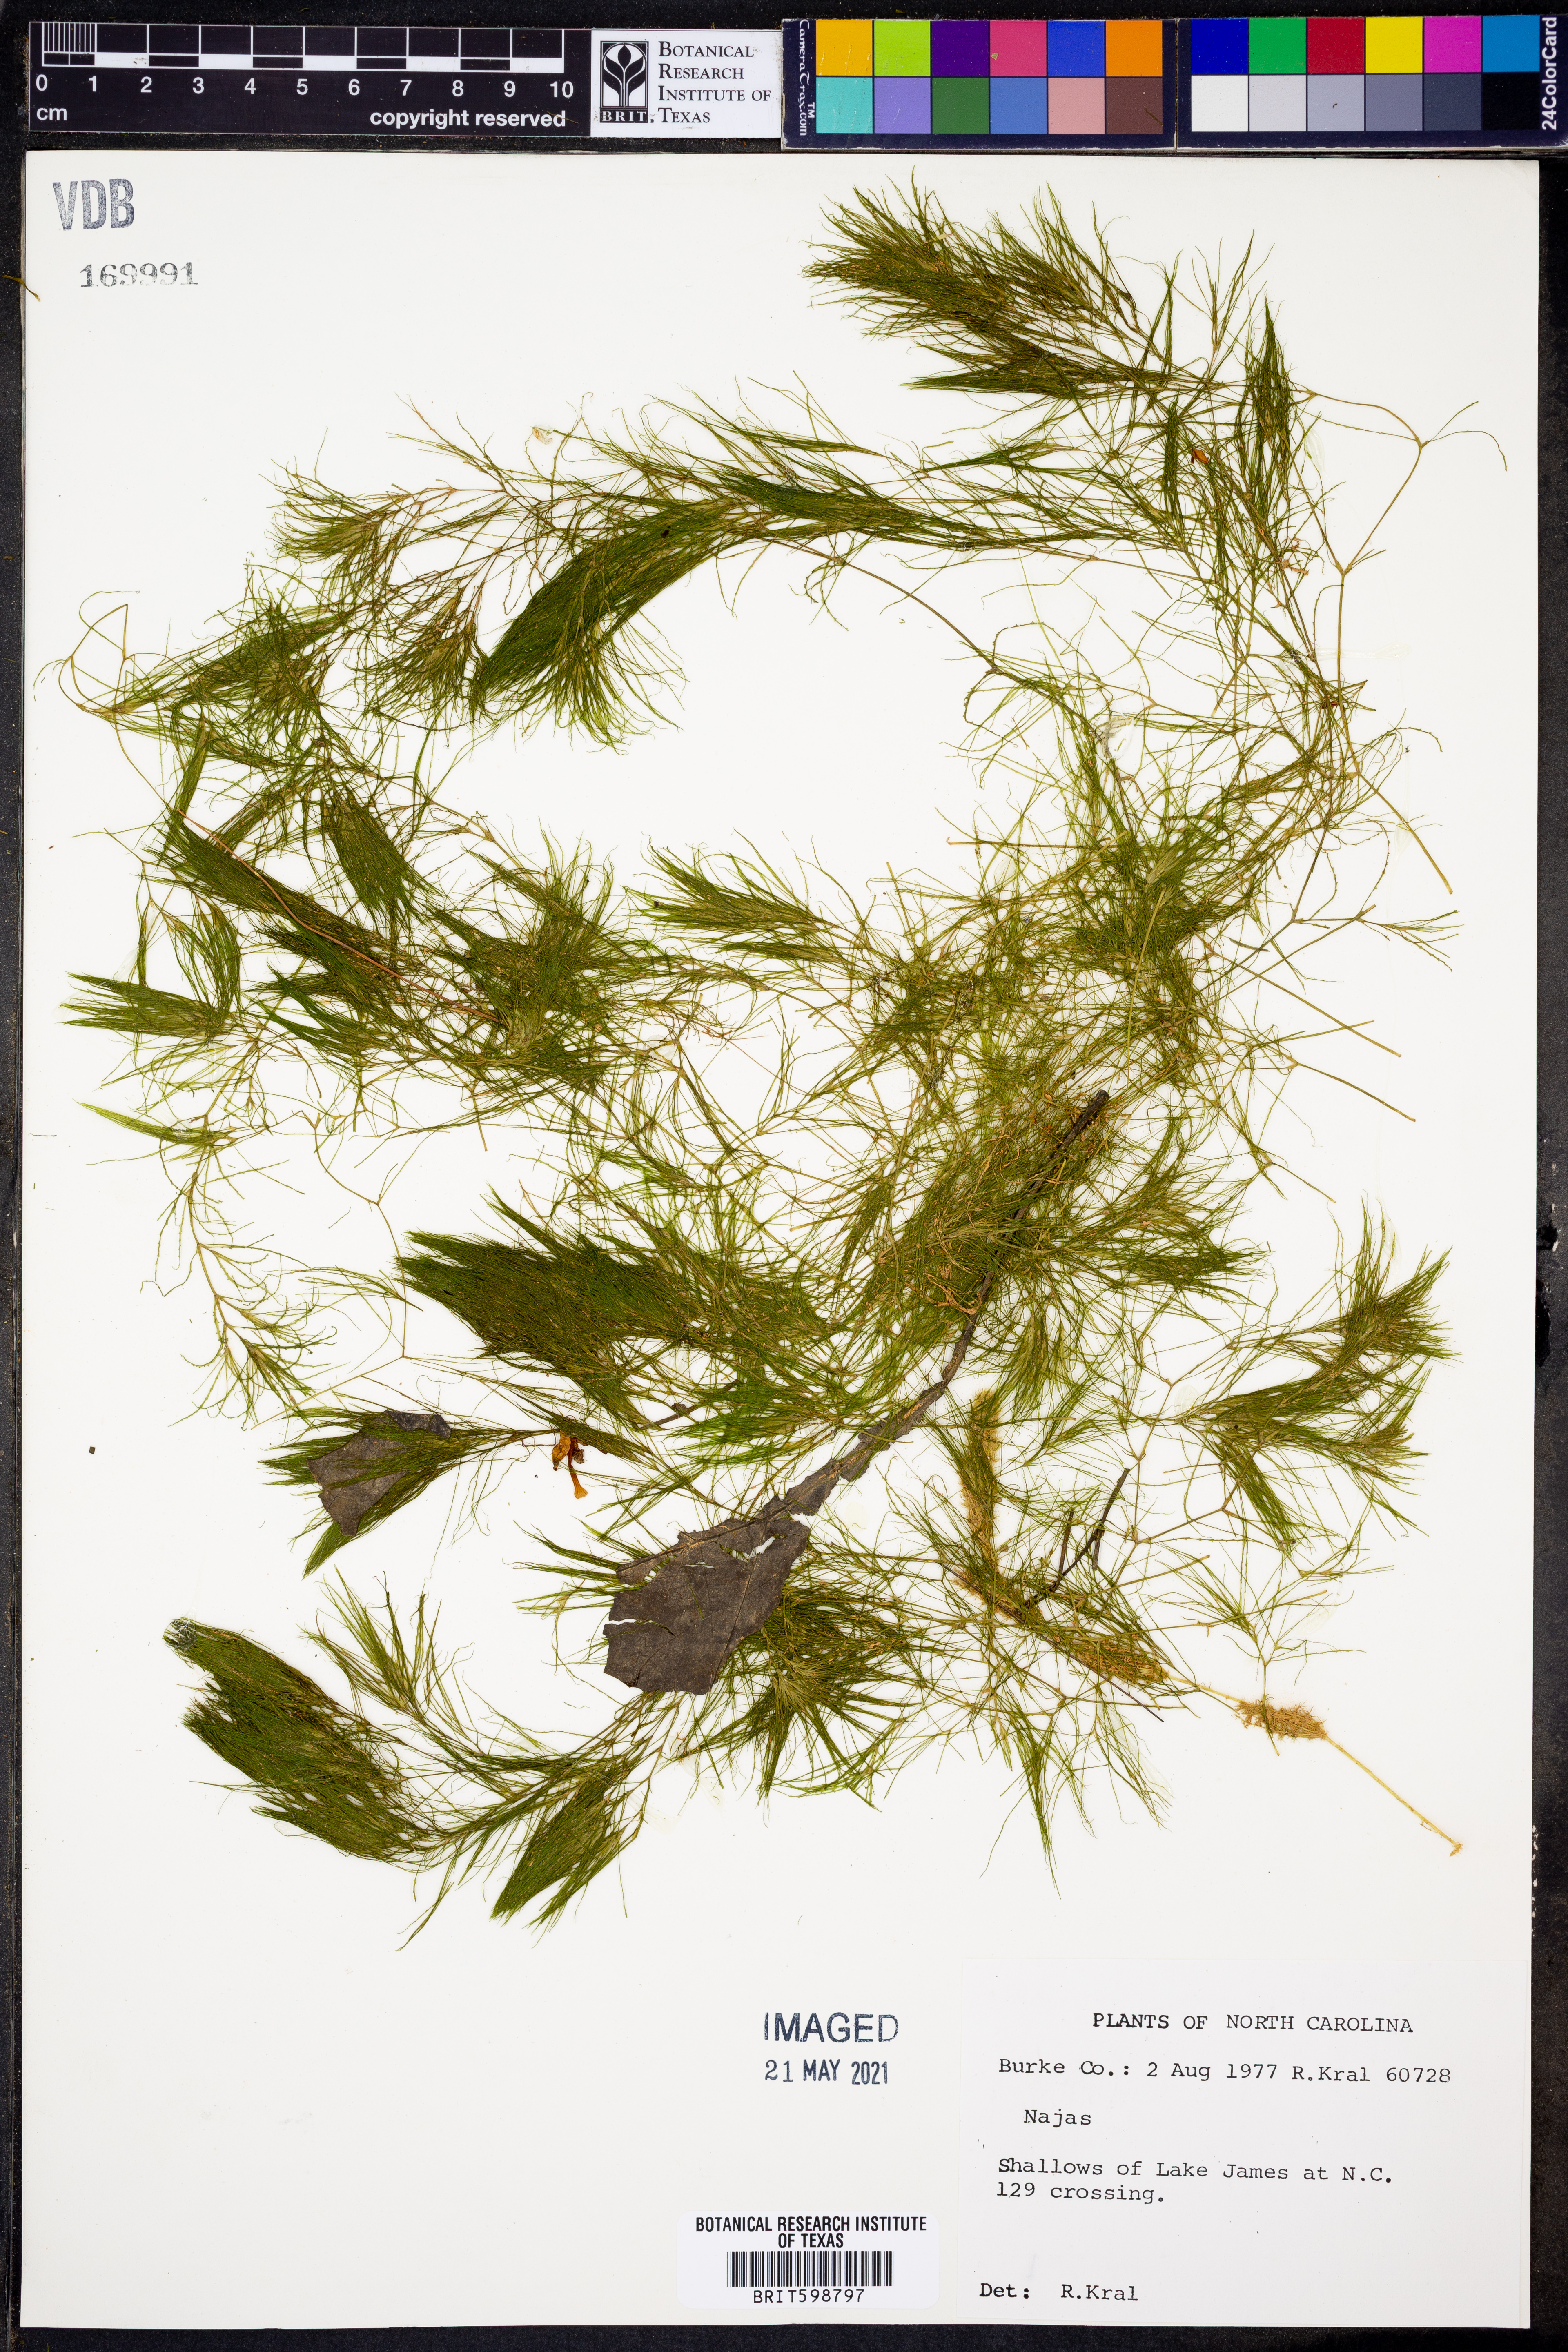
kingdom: Plantae
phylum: Tracheophyta
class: Liliopsida
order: Alismatales
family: Hydrocharitaceae
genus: Najas
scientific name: Najas
